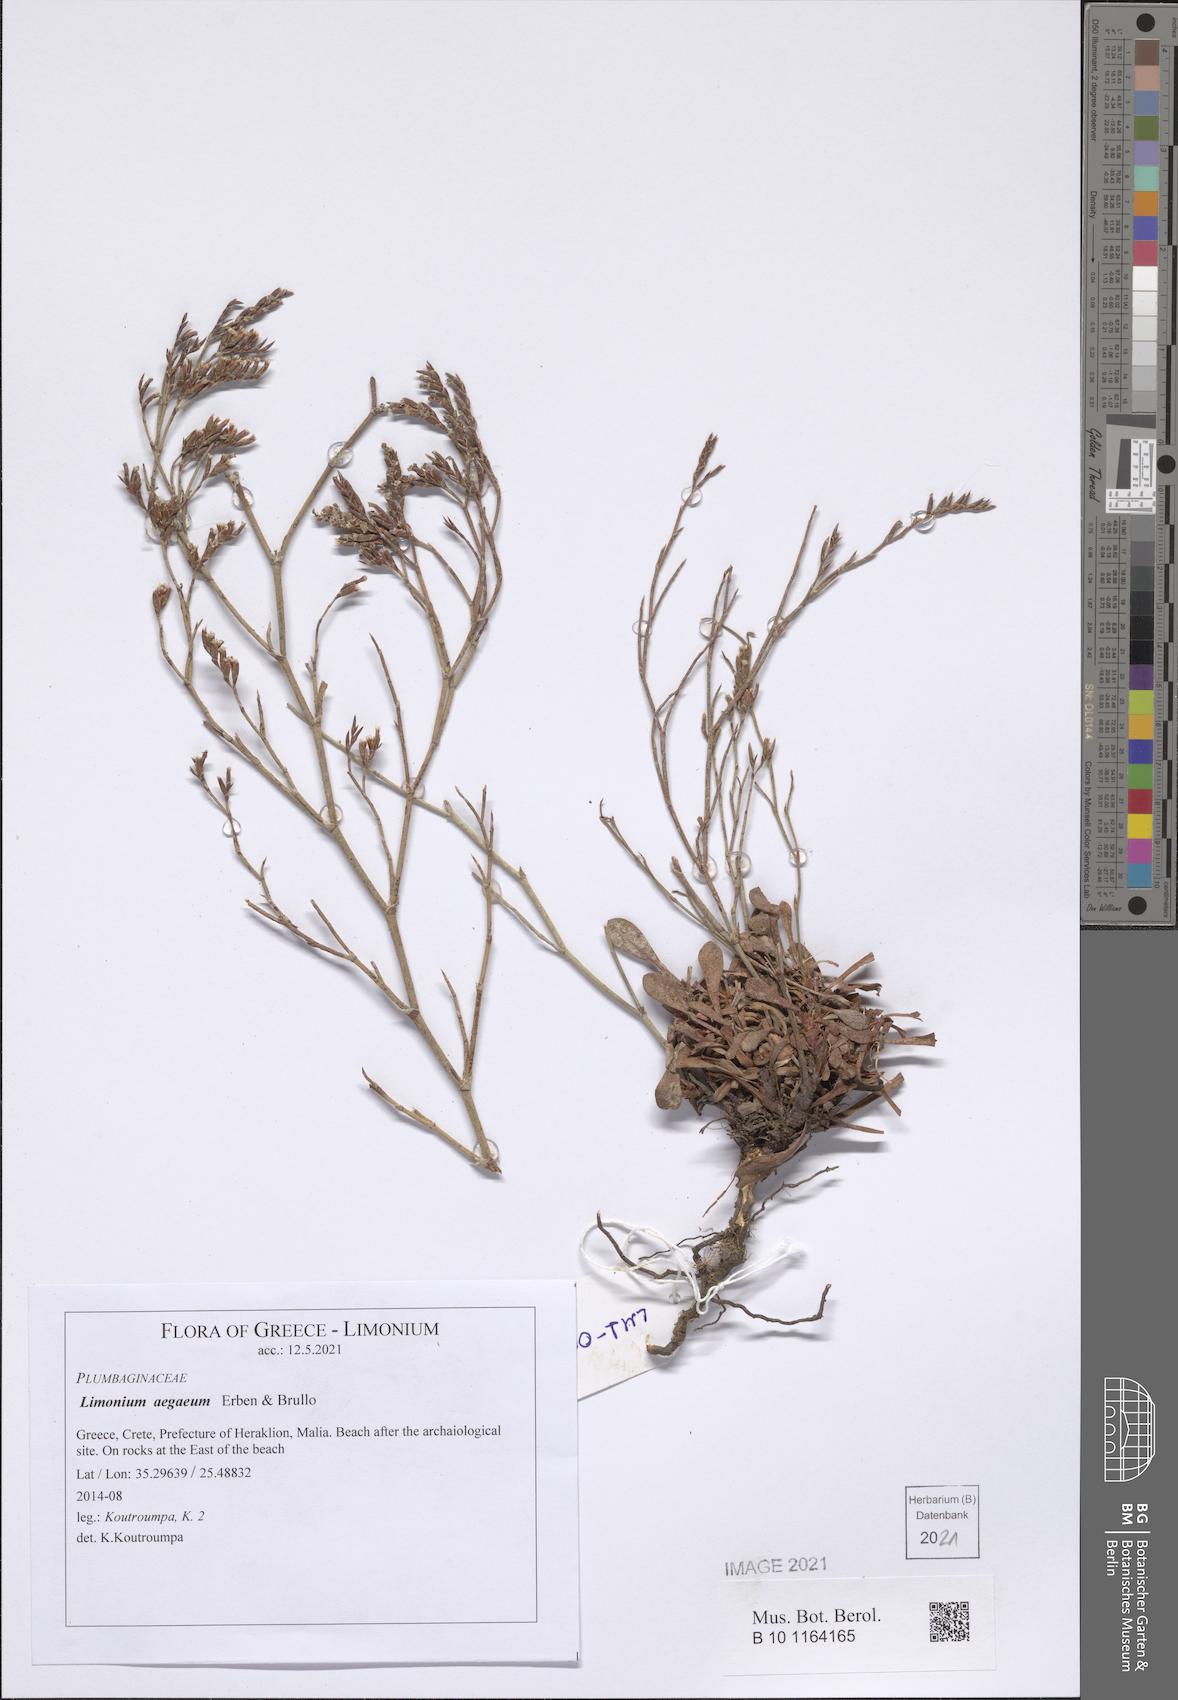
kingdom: Plantae
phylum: Tracheophyta
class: Magnoliopsida
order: Caryophyllales
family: Plumbaginaceae
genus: Limonium
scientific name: Limonium aegaeum
